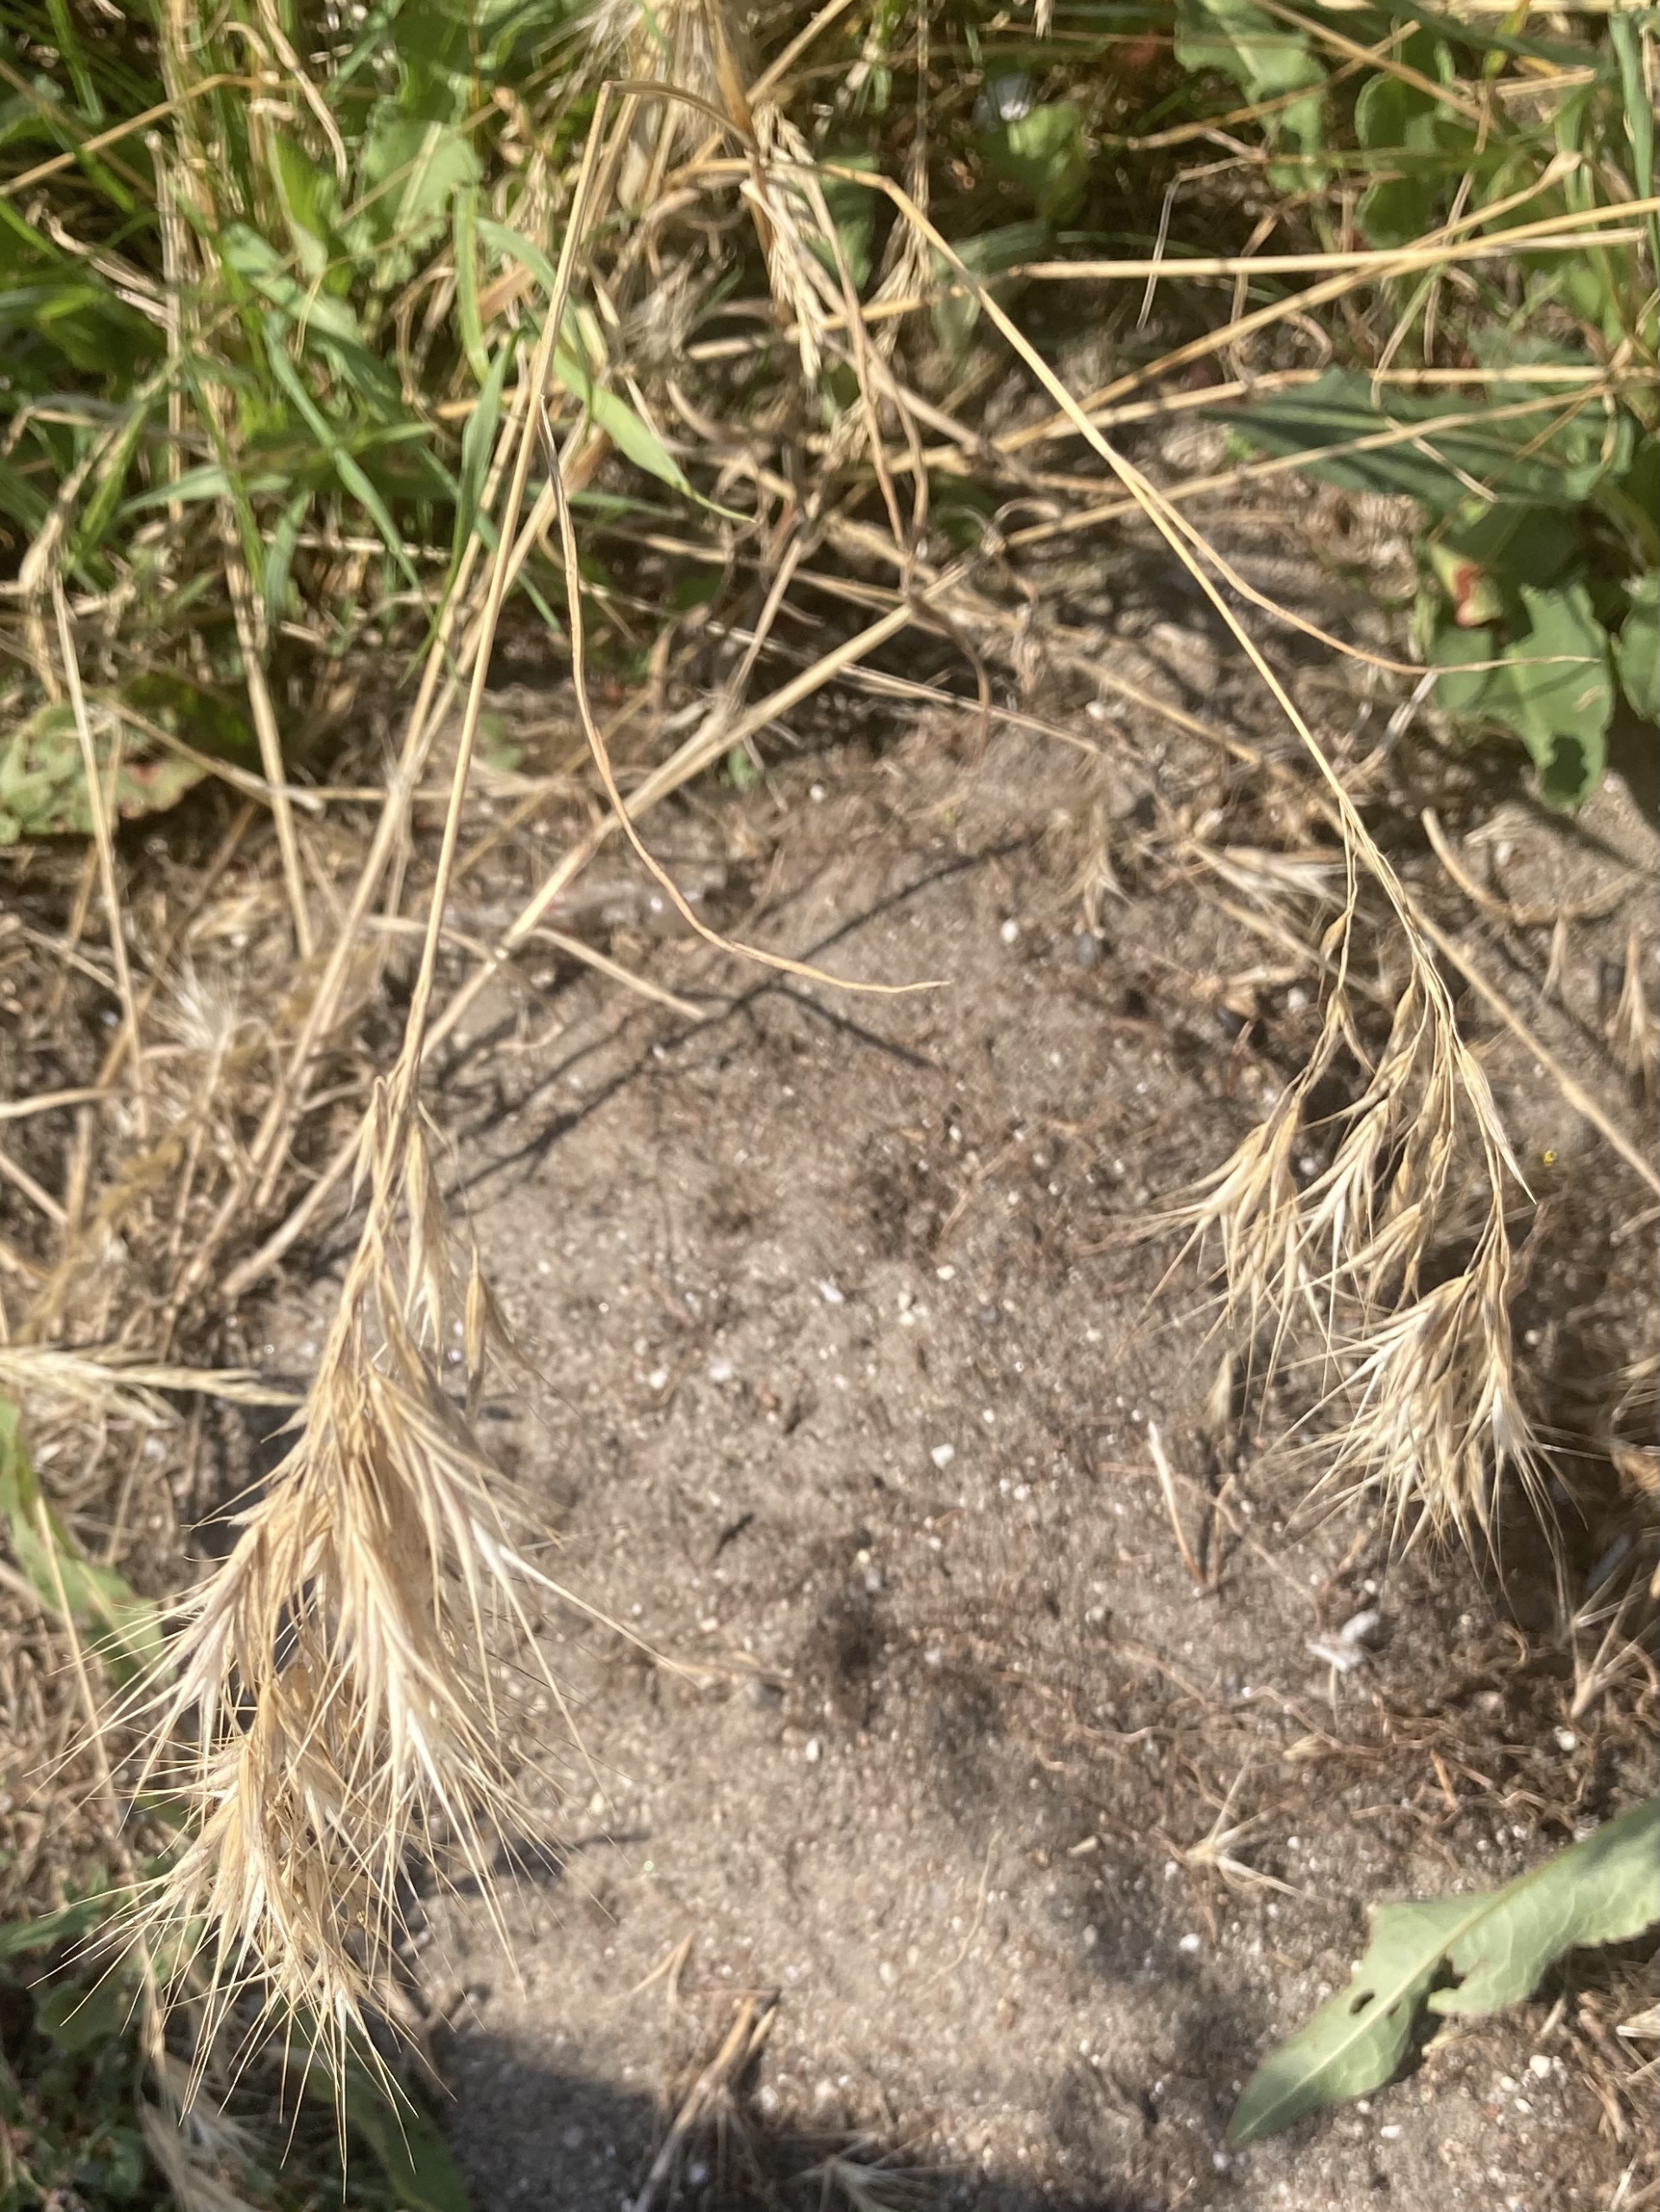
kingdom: Plantae
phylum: Tracheophyta
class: Liliopsida
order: Poales
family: Poaceae
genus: Bromus
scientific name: Bromus tectorum
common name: Tag-hejre
